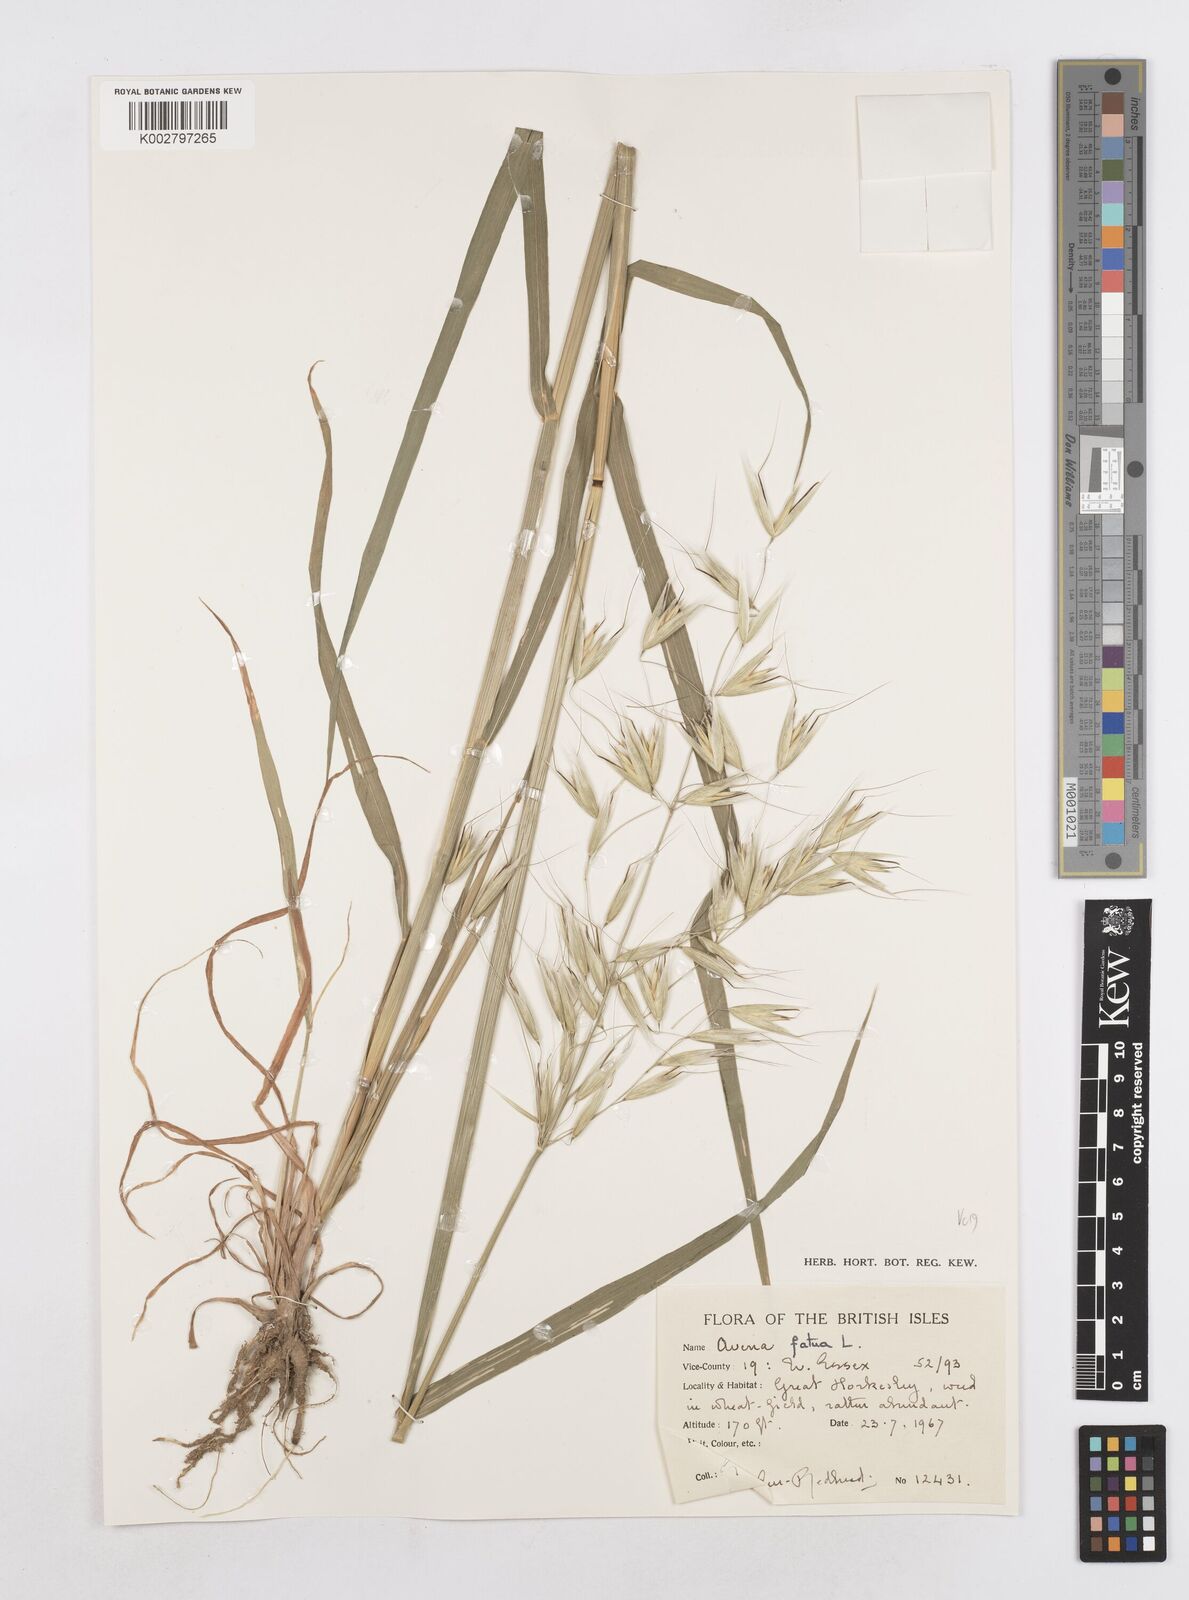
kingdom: Plantae
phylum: Tracheophyta
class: Liliopsida
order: Poales
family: Poaceae
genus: Avena
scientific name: Avena fatua
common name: Wild oat
